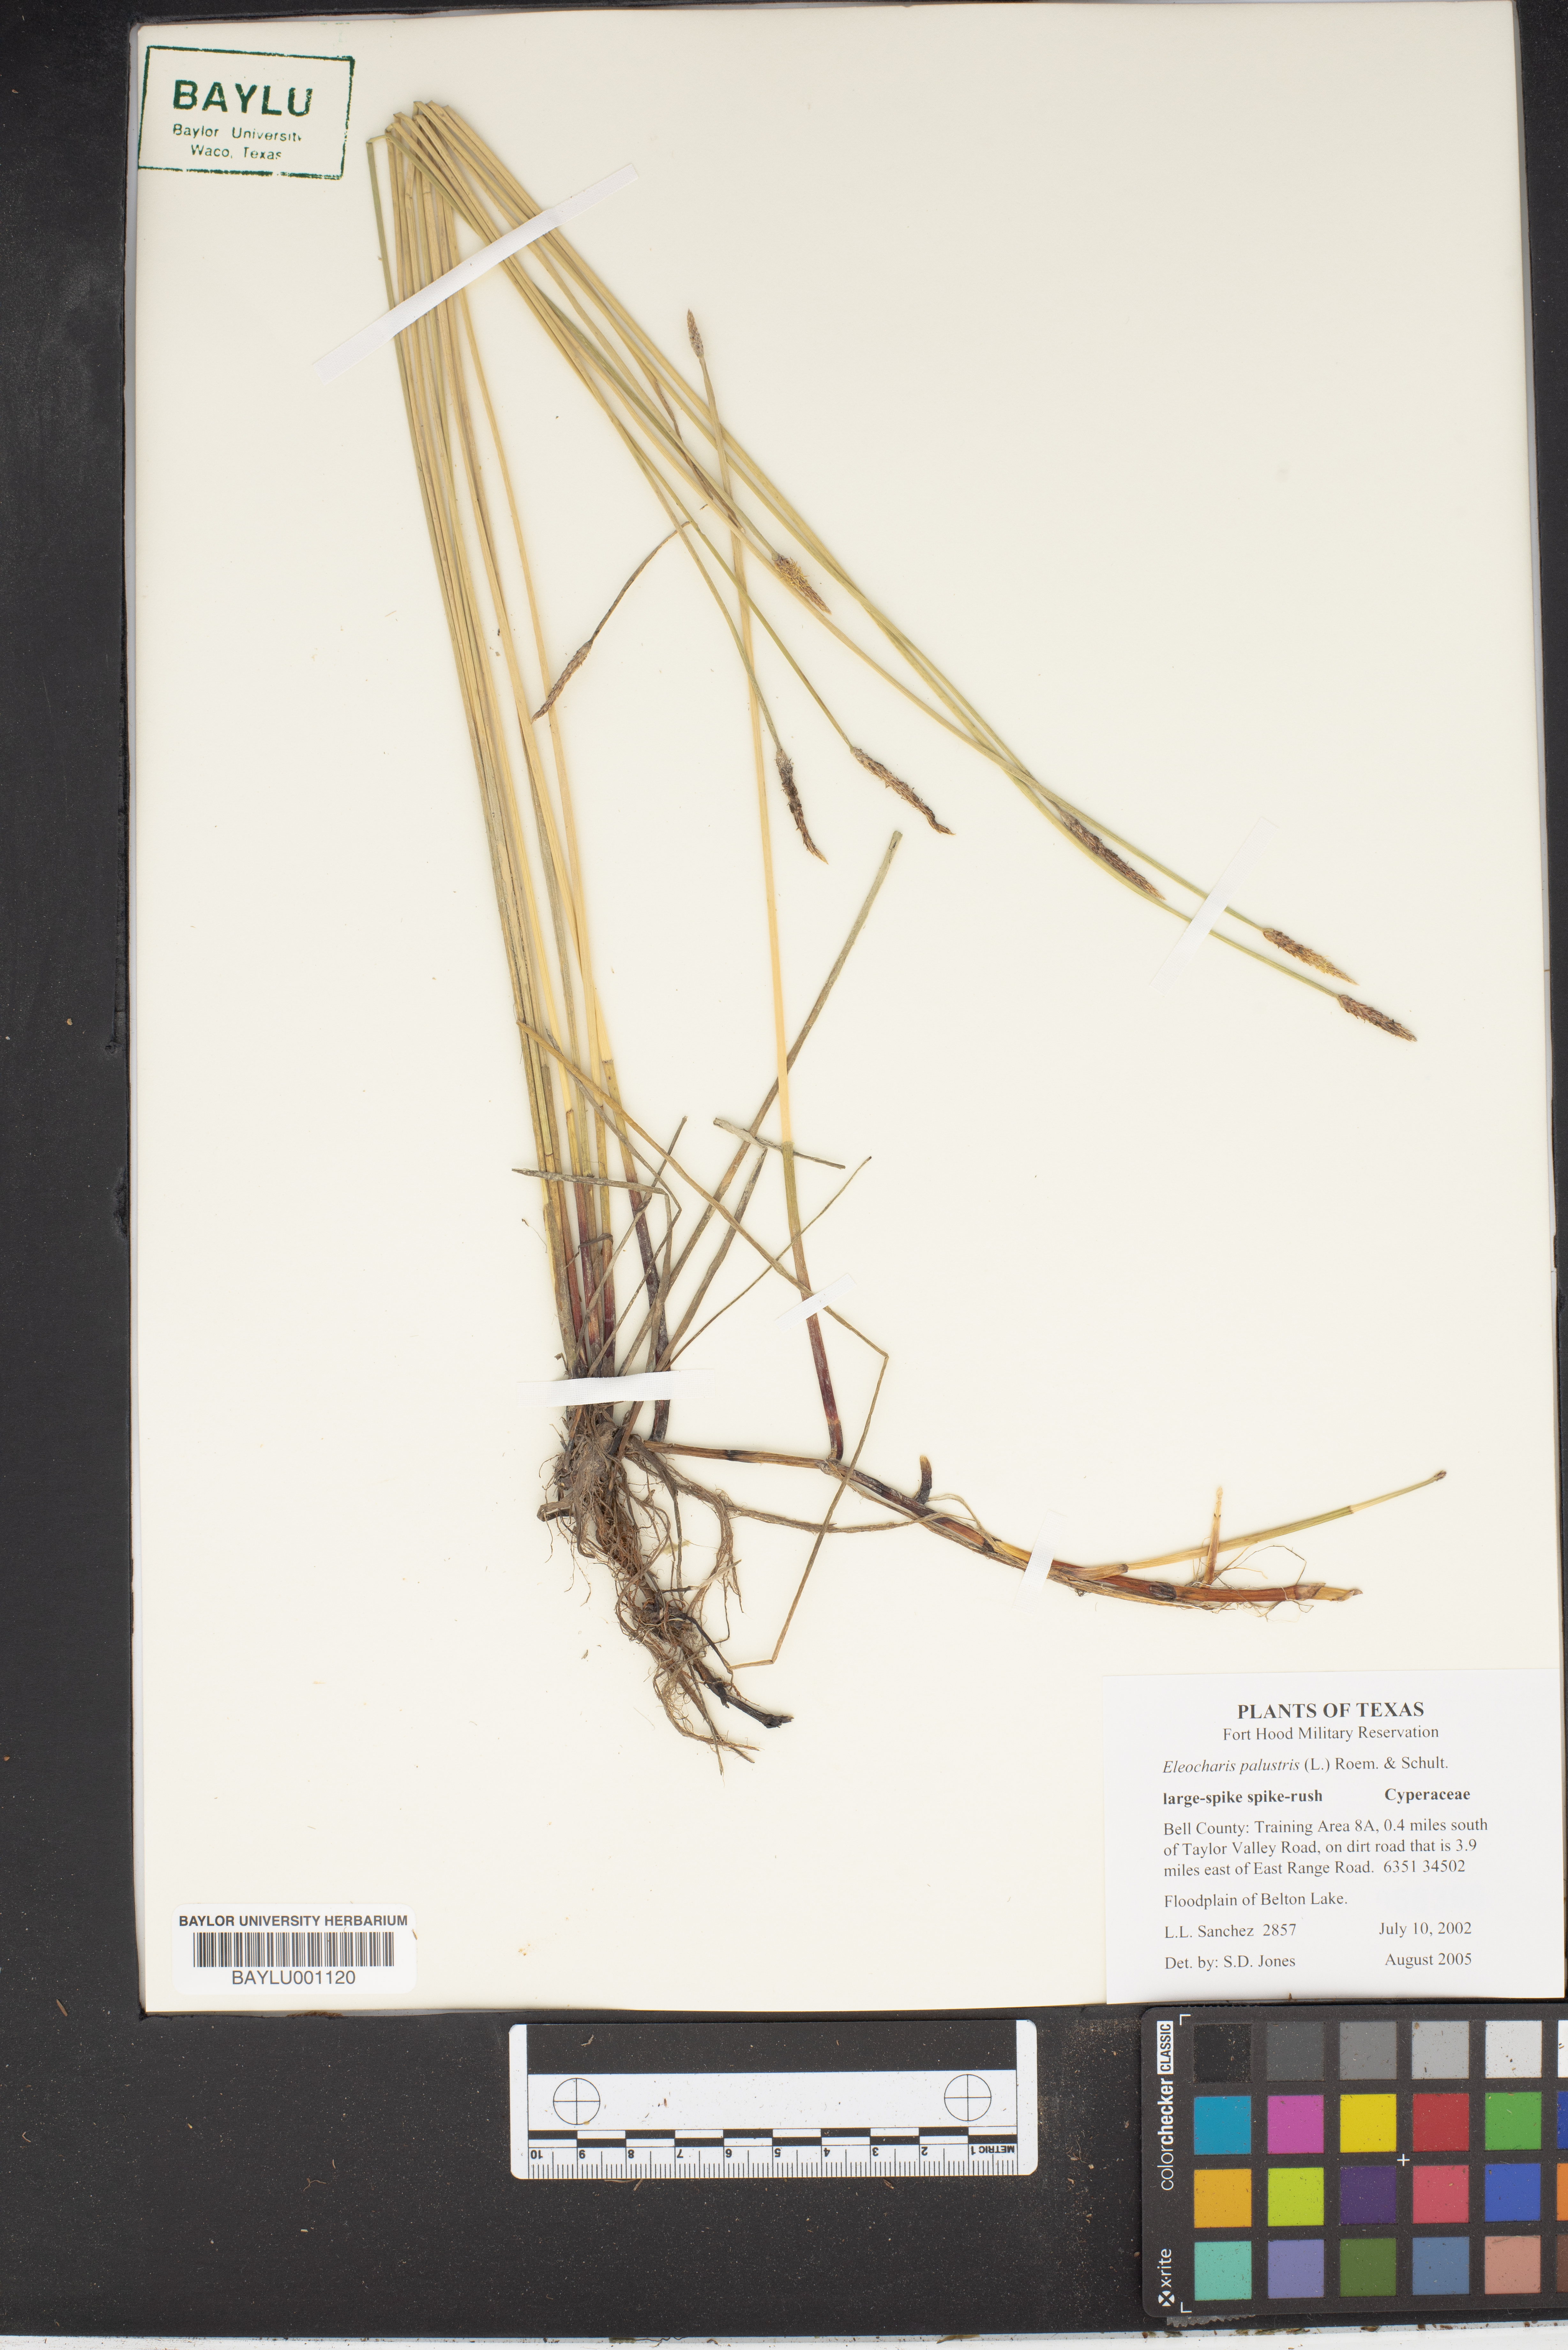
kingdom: Plantae
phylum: Tracheophyta
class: Liliopsida
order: Poales
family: Cyperaceae
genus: Eleocharis
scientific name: Eleocharis palustris
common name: Common spike-rush
